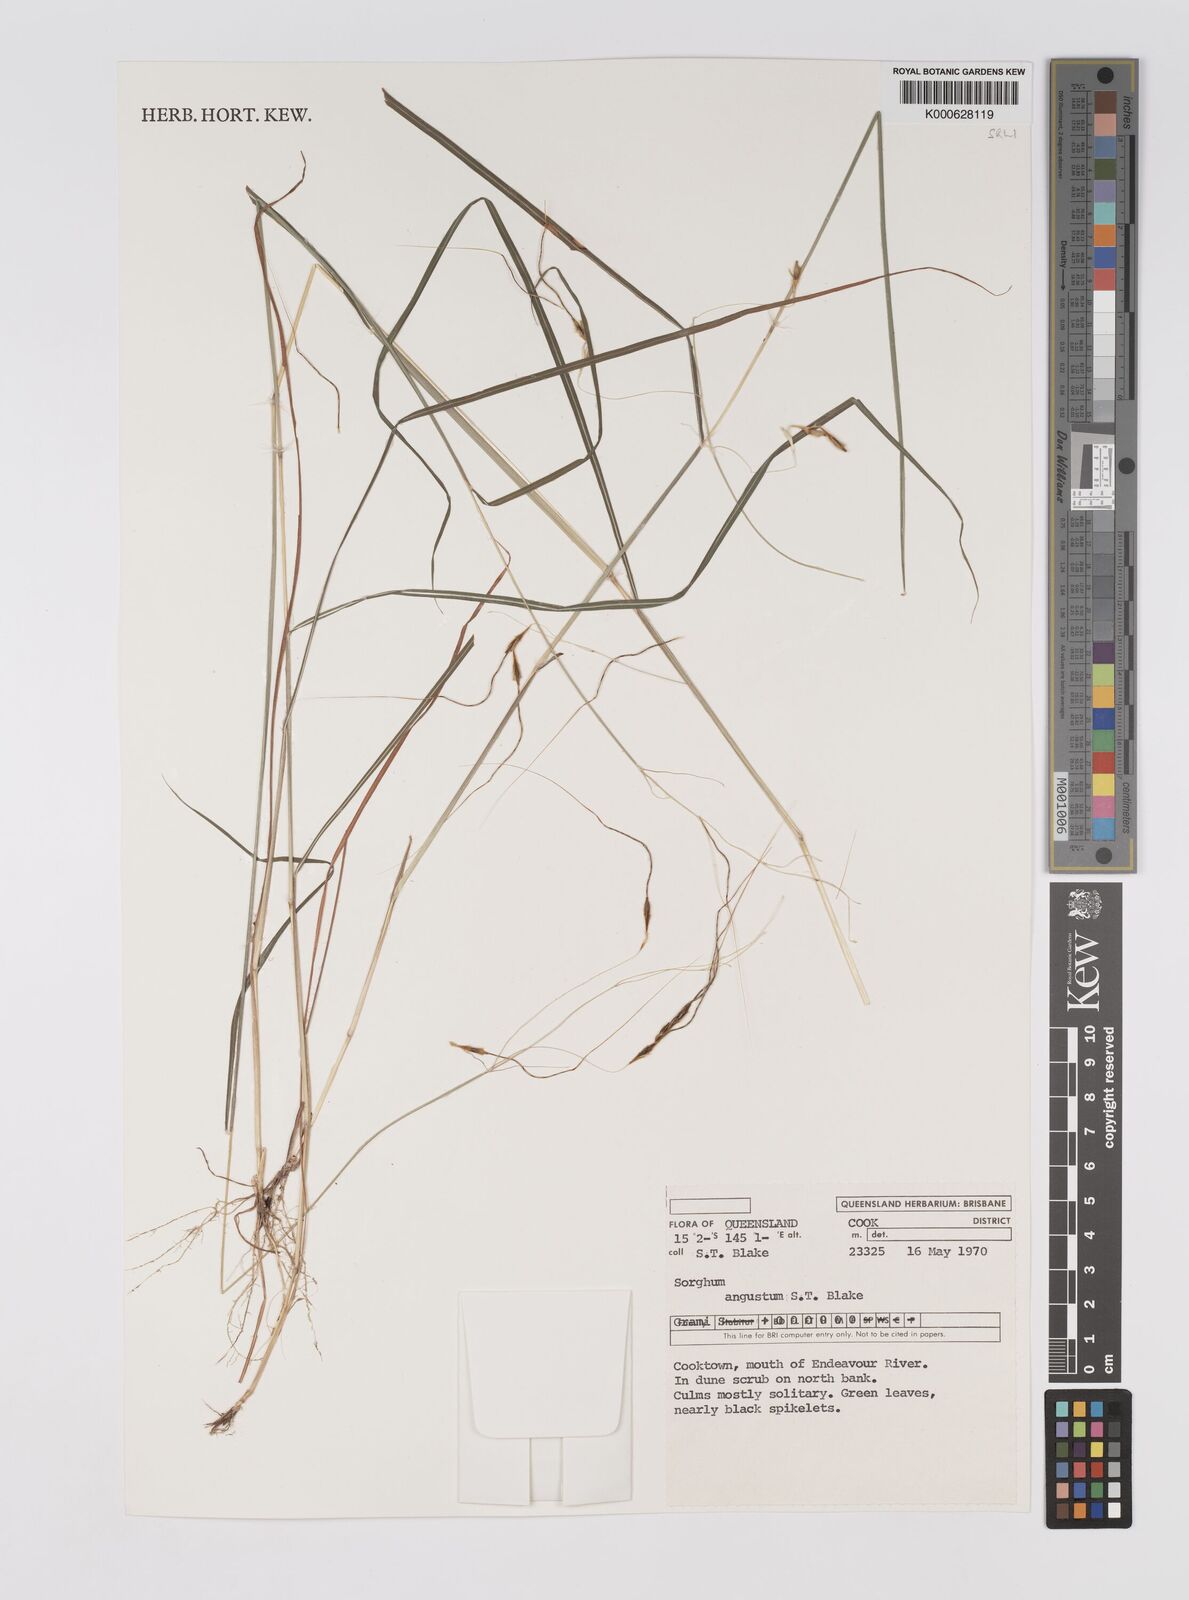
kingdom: Plantae
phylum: Tracheophyta
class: Liliopsida
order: Poales
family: Poaceae
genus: Sarga
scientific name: Sarga angusta
